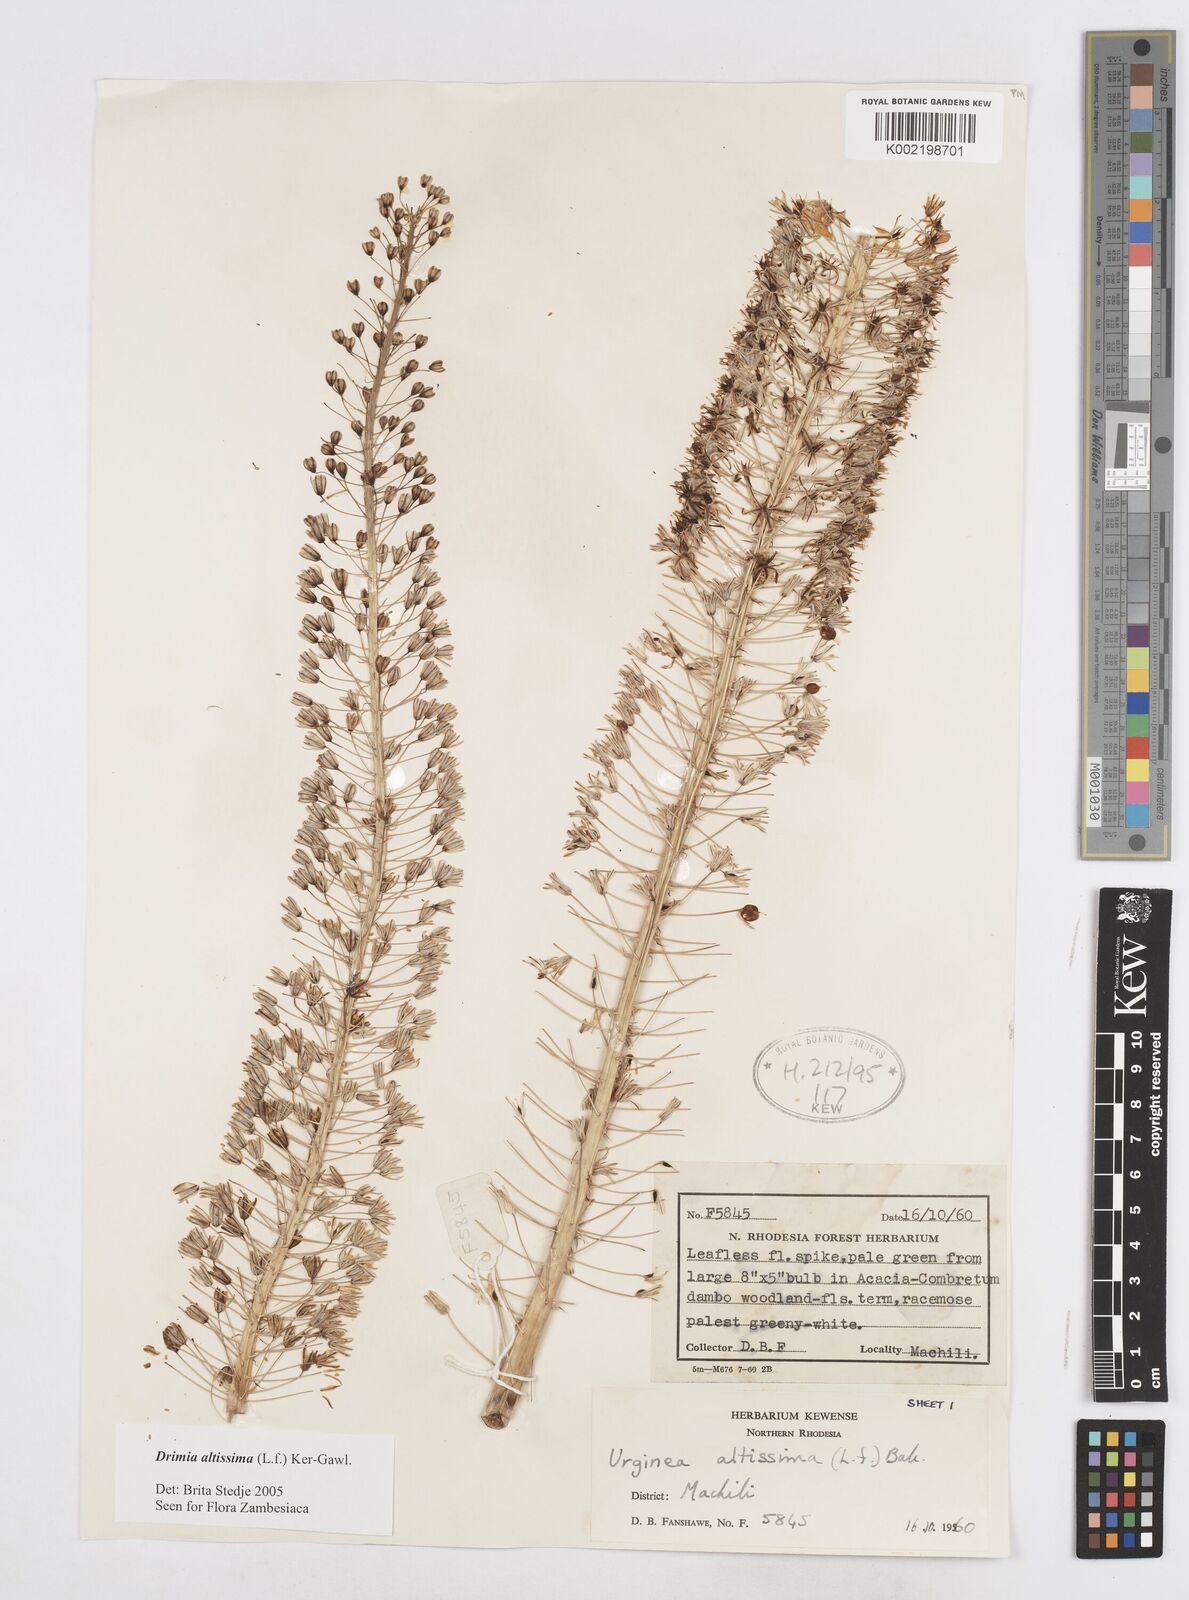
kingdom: Plantae
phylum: Tracheophyta
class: Liliopsida
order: Asparagales
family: Asparagaceae
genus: Drimia
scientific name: Drimia
